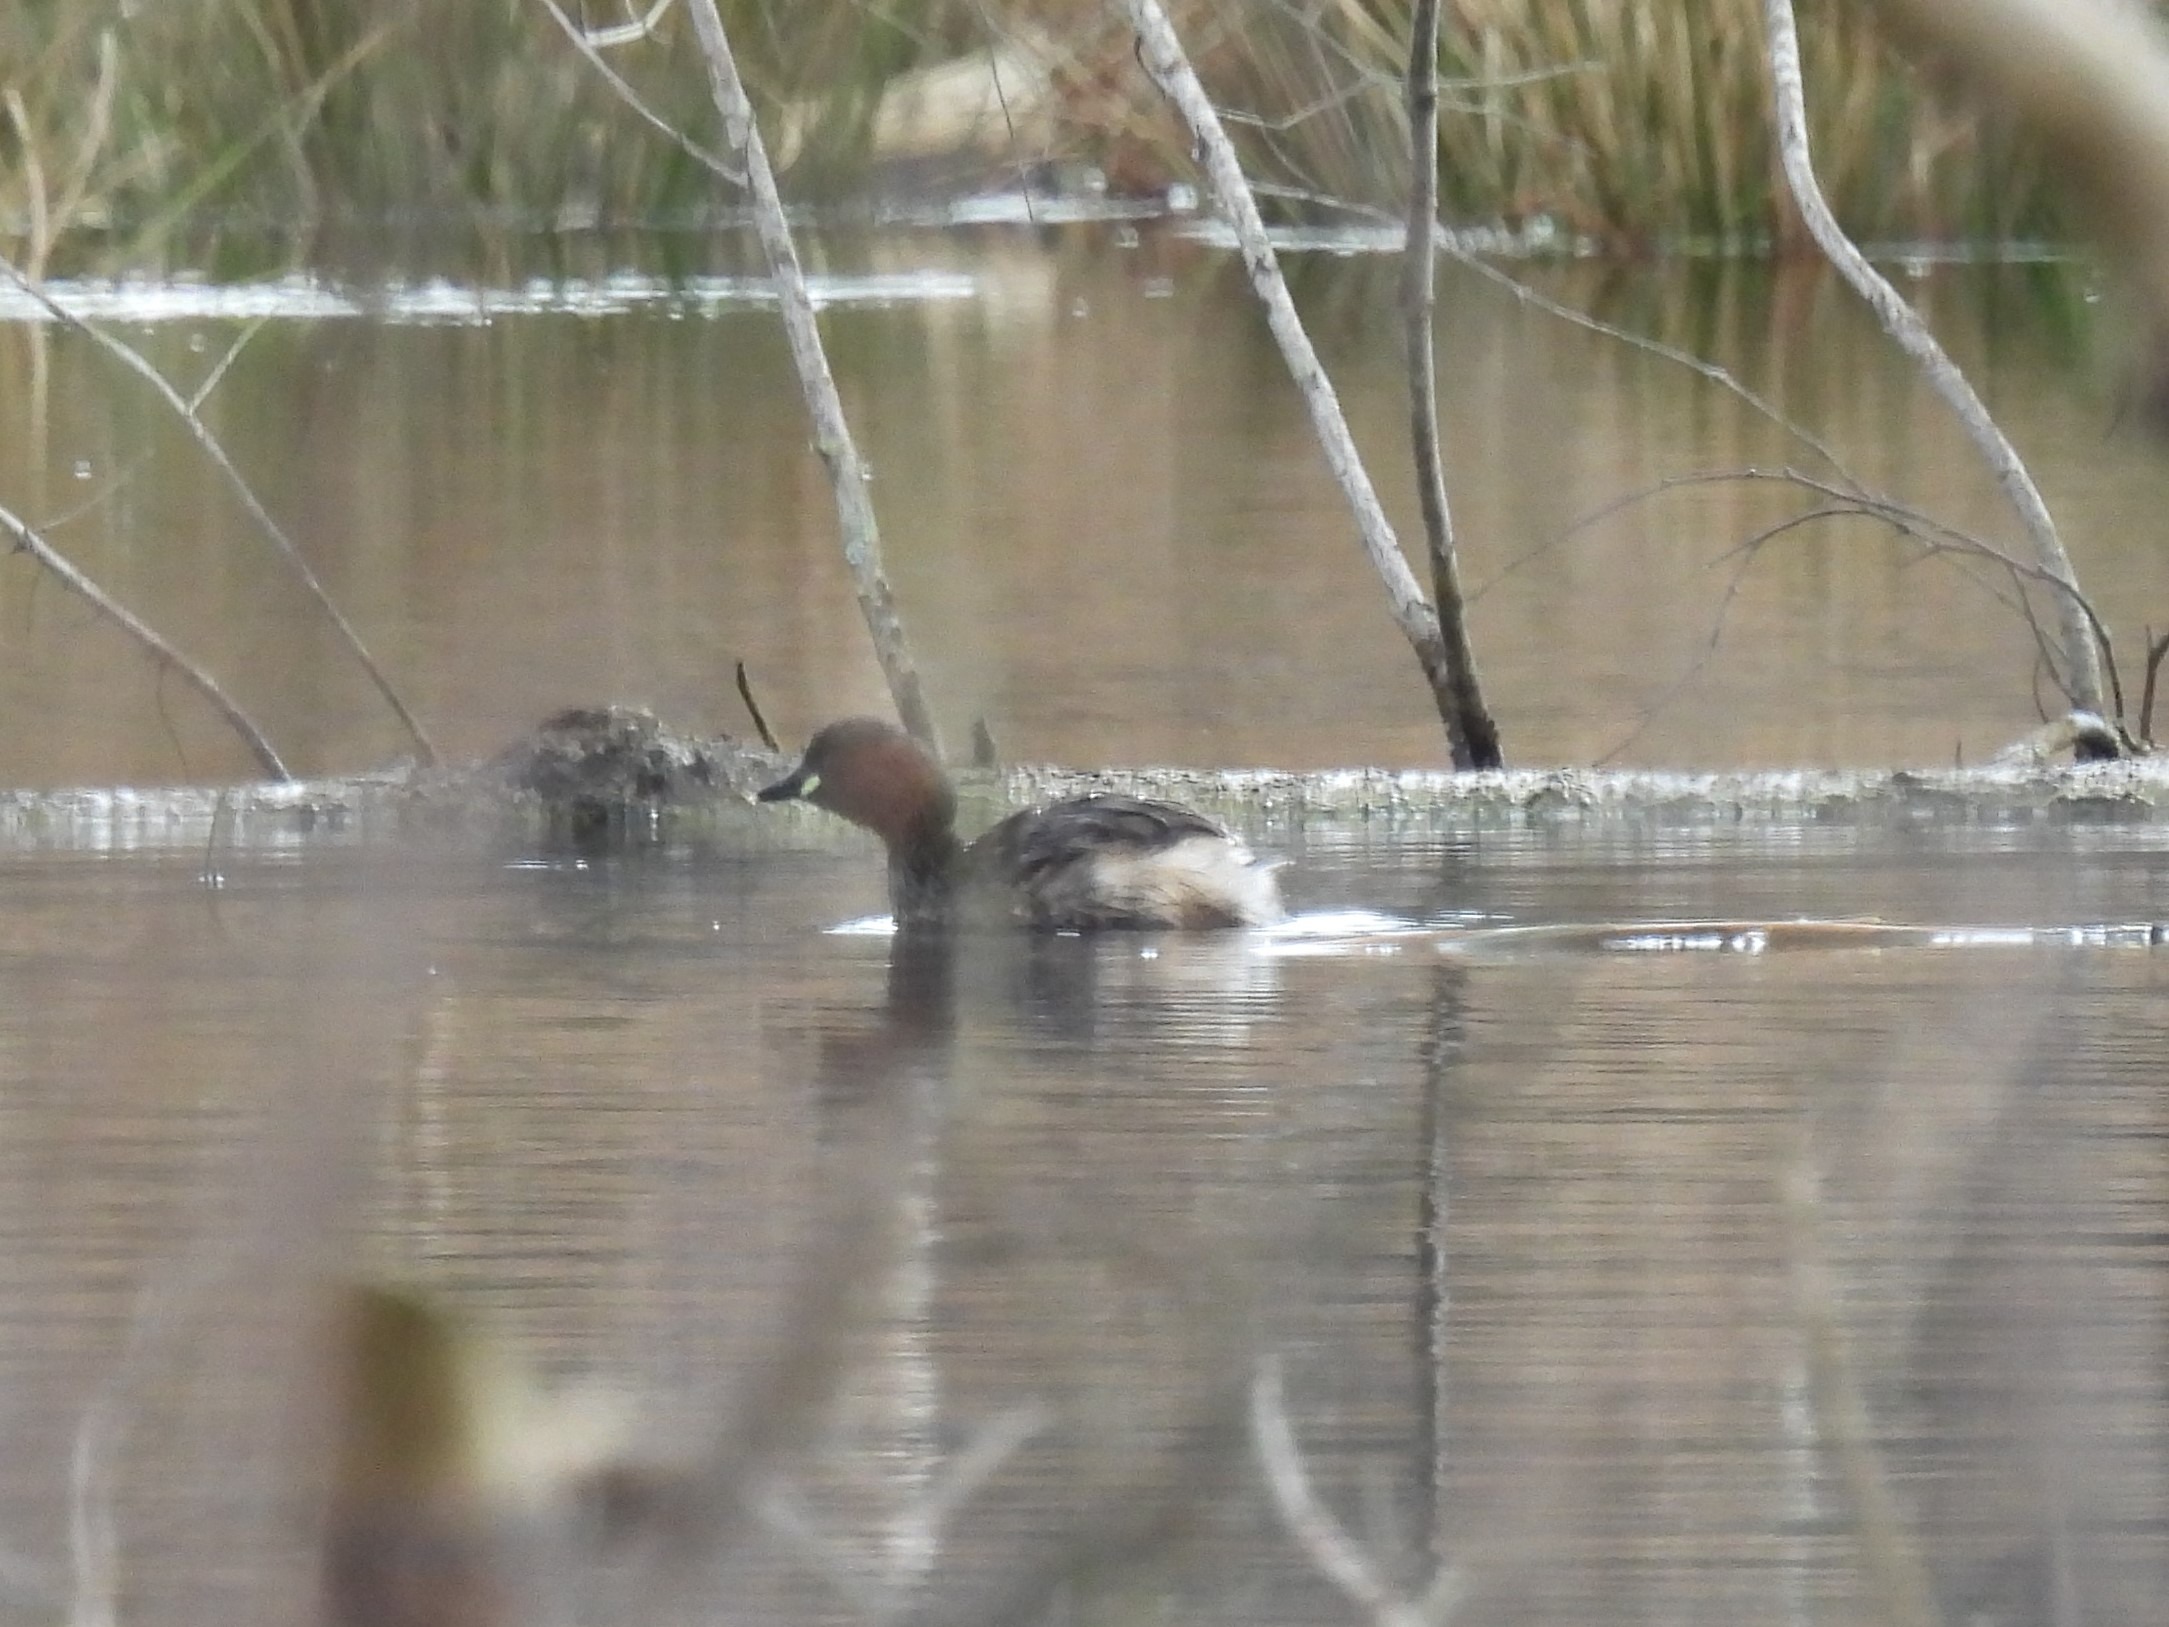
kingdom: Animalia
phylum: Chordata
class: Aves
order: Podicipediformes
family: Podicipedidae
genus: Tachybaptus
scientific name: Tachybaptus ruficollis
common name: Lille lappedykker
